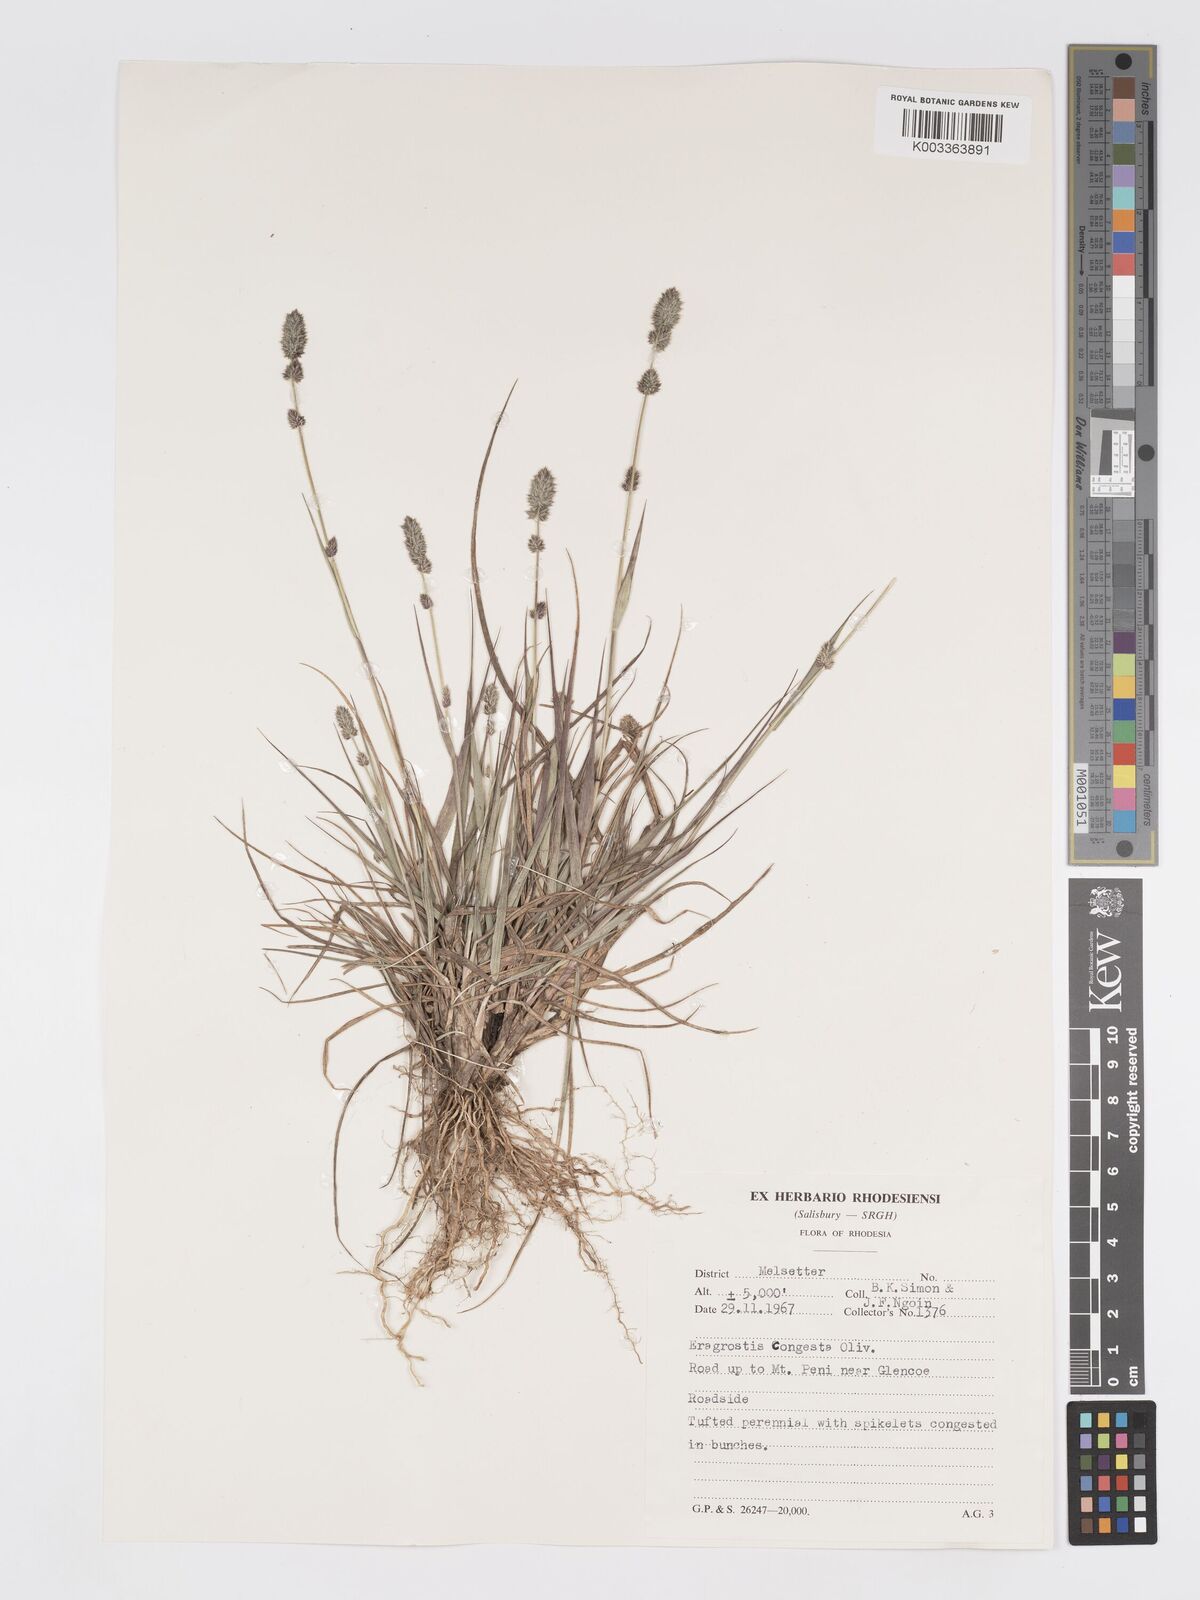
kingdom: Plantae
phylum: Tracheophyta
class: Liliopsida
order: Poales
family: Poaceae
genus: Eragrostis
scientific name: Eragrostis congesta
